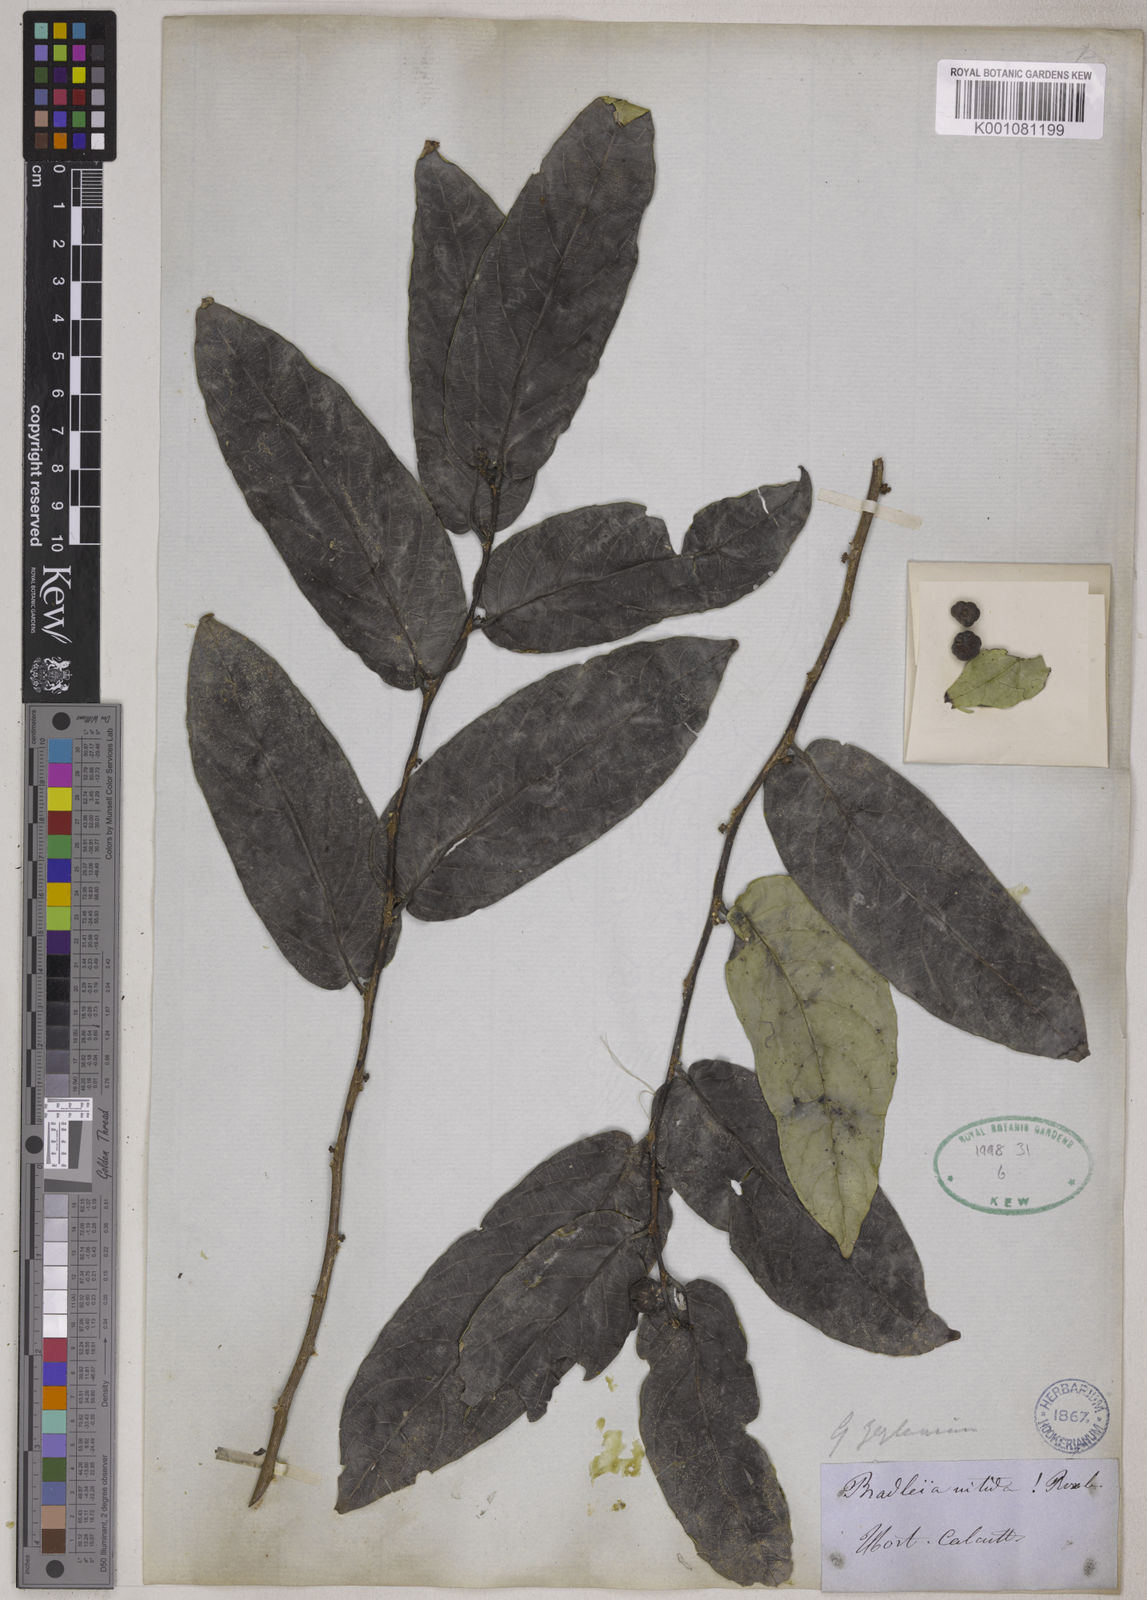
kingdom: Plantae
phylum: Tracheophyta
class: Magnoliopsida
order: Malpighiales
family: Phyllanthaceae
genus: Glochidion
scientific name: Glochidion zeylanicum
